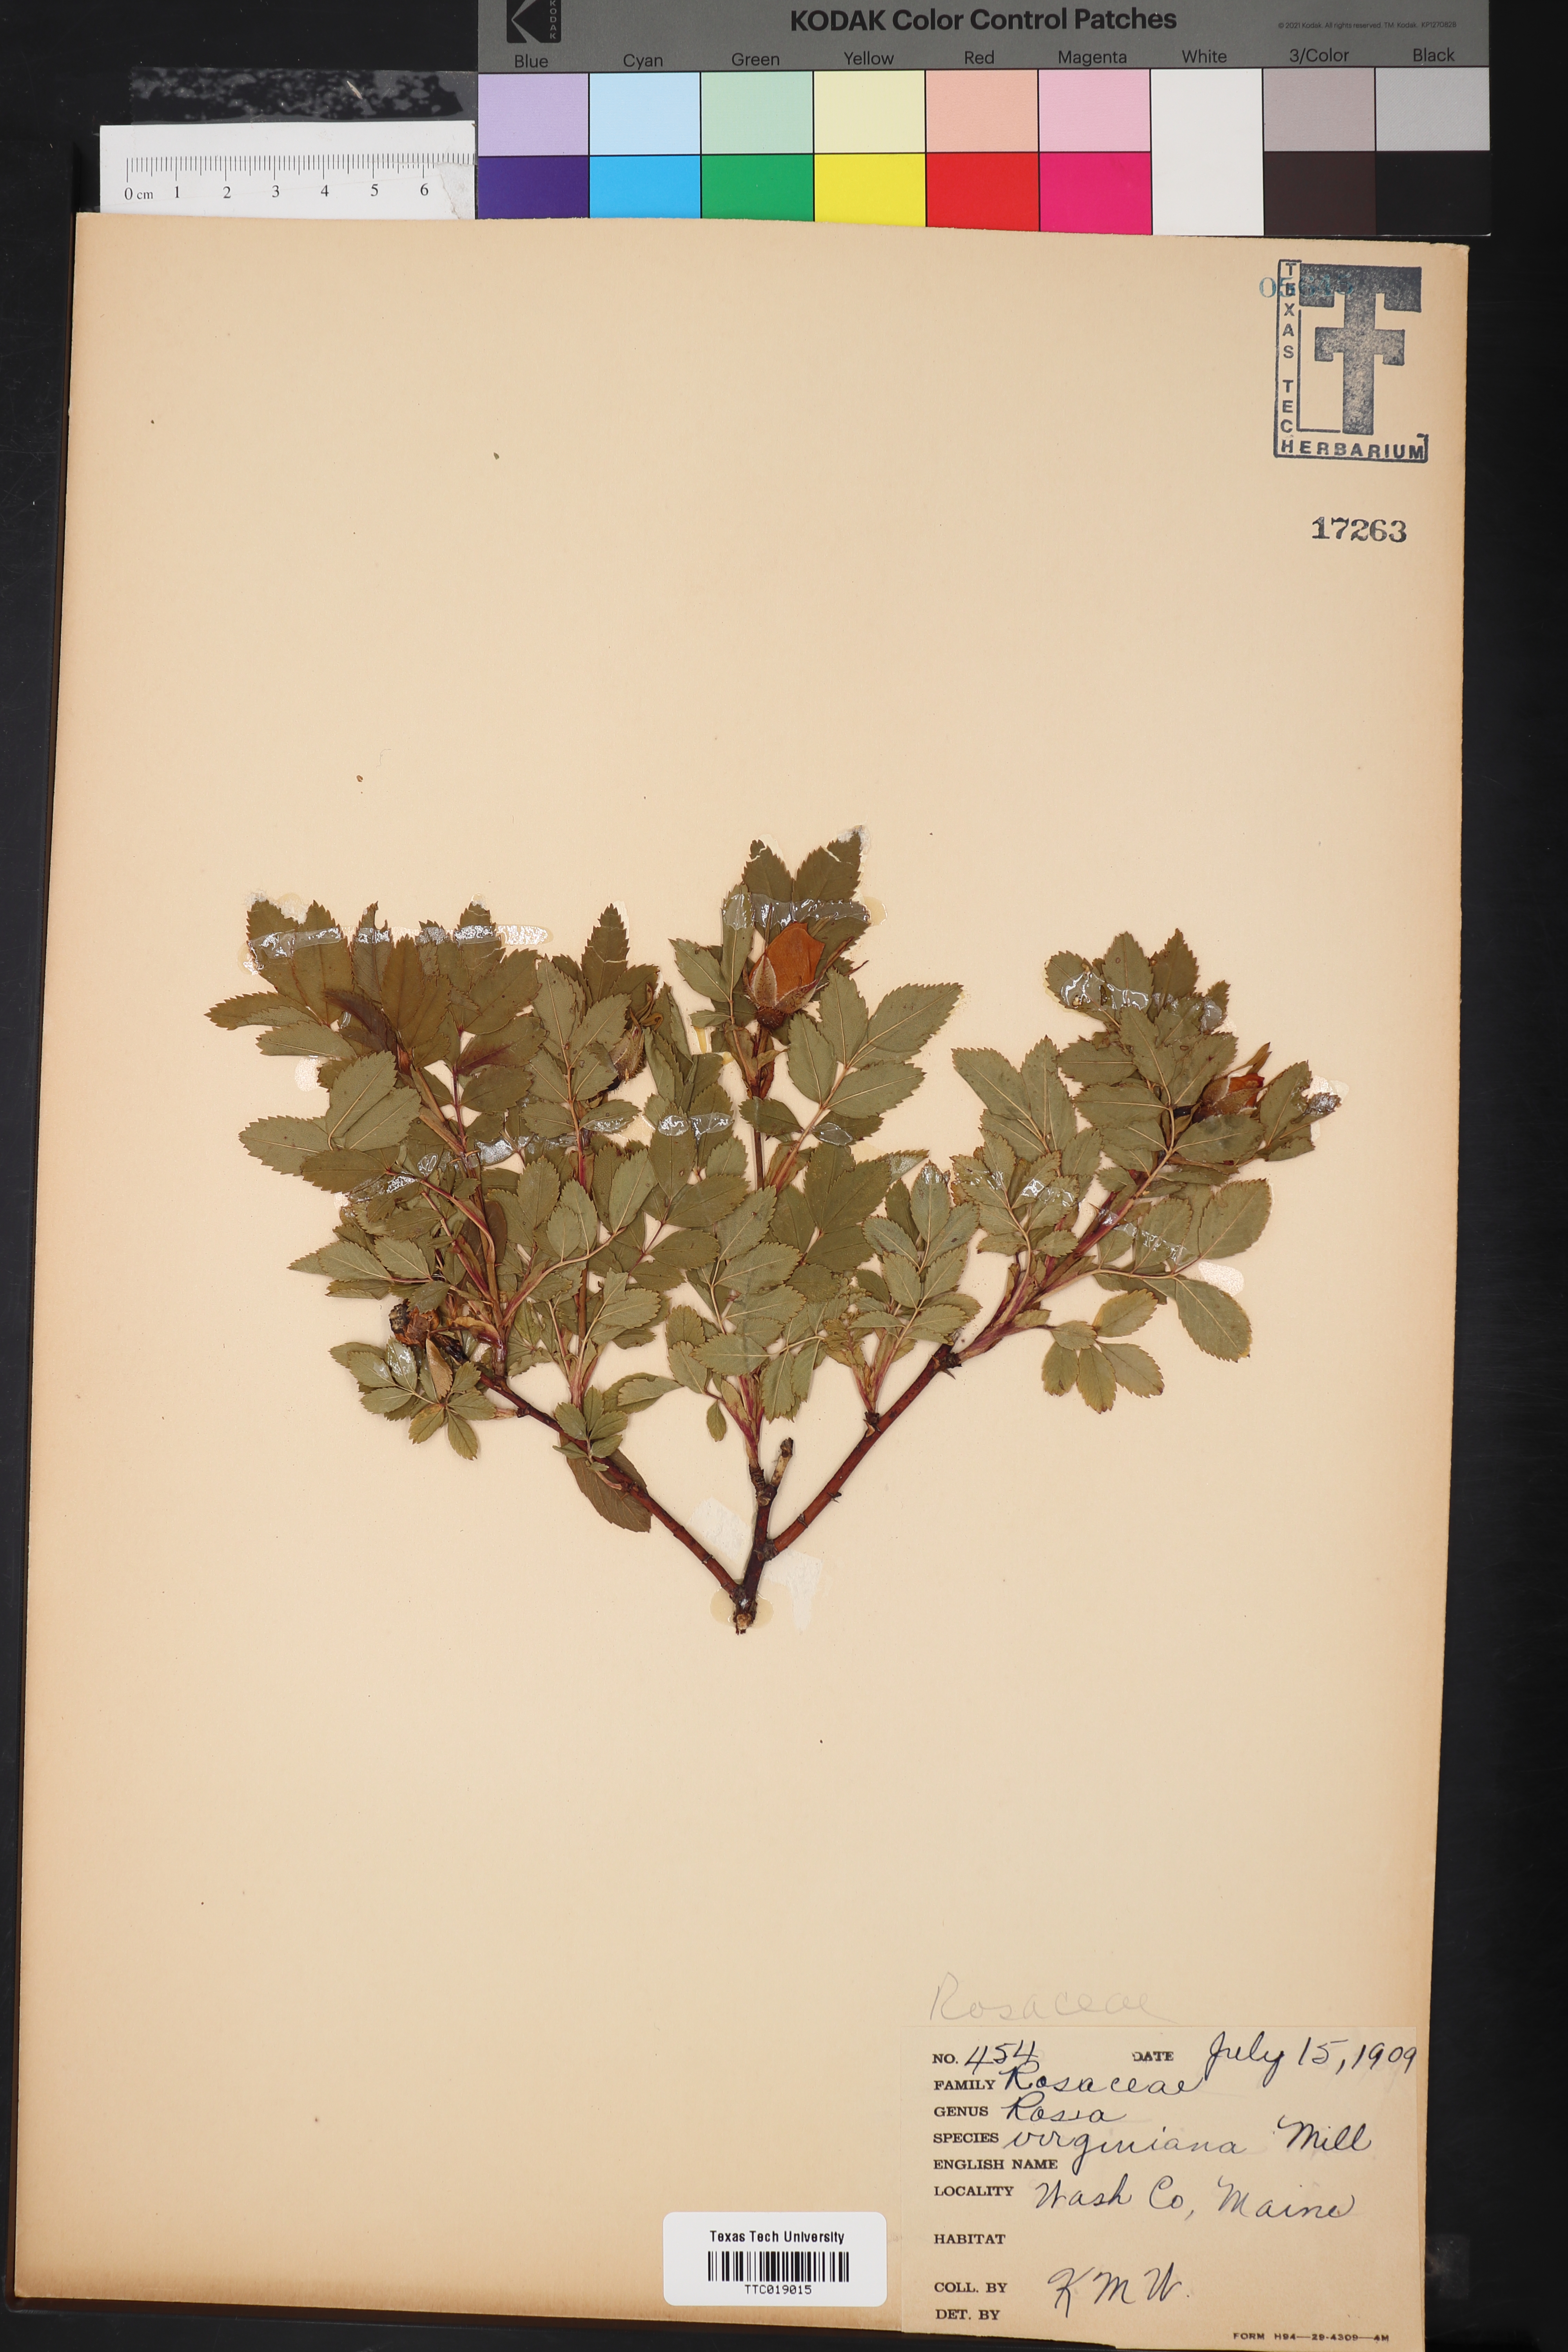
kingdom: Plantae
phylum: Tracheophyta
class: Magnoliopsida
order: Rosales
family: Rosaceae
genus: Rosa
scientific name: Rosa carolina
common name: Pasture rose
